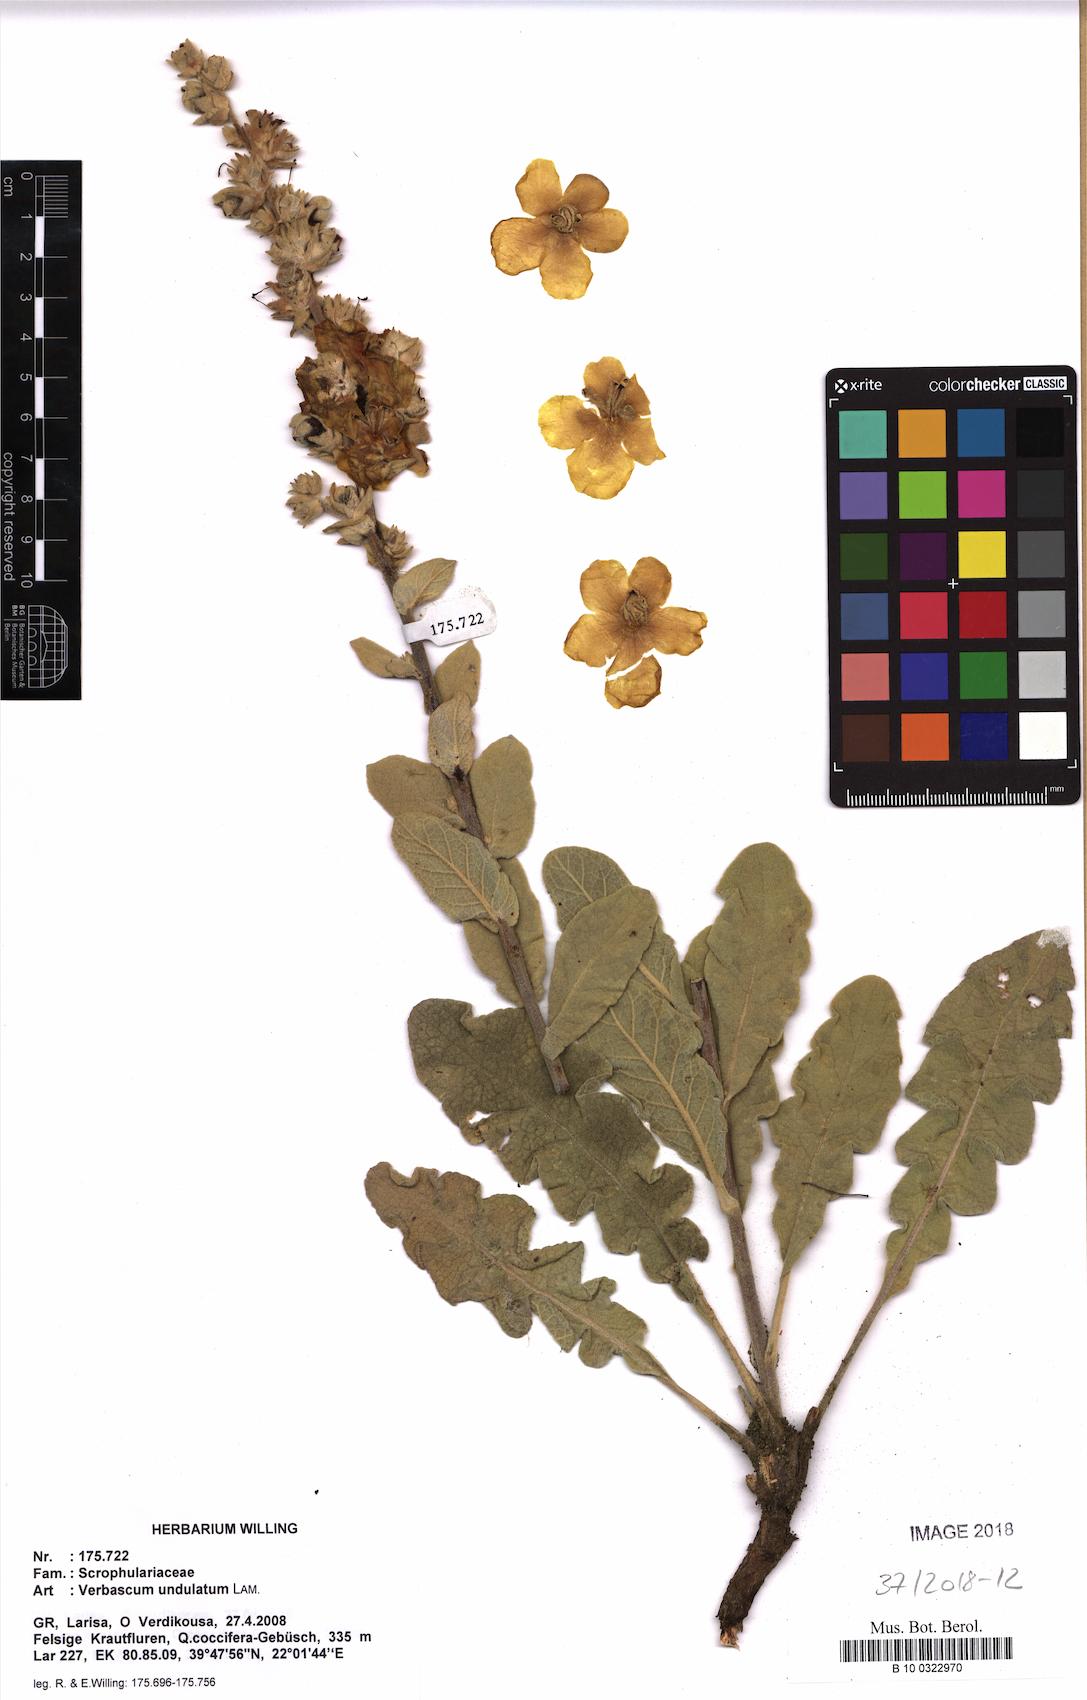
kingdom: Plantae
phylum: Tracheophyta
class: Magnoliopsida
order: Lamiales
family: Scrophulariaceae
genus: Verbascum
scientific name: Verbascum undulatum
